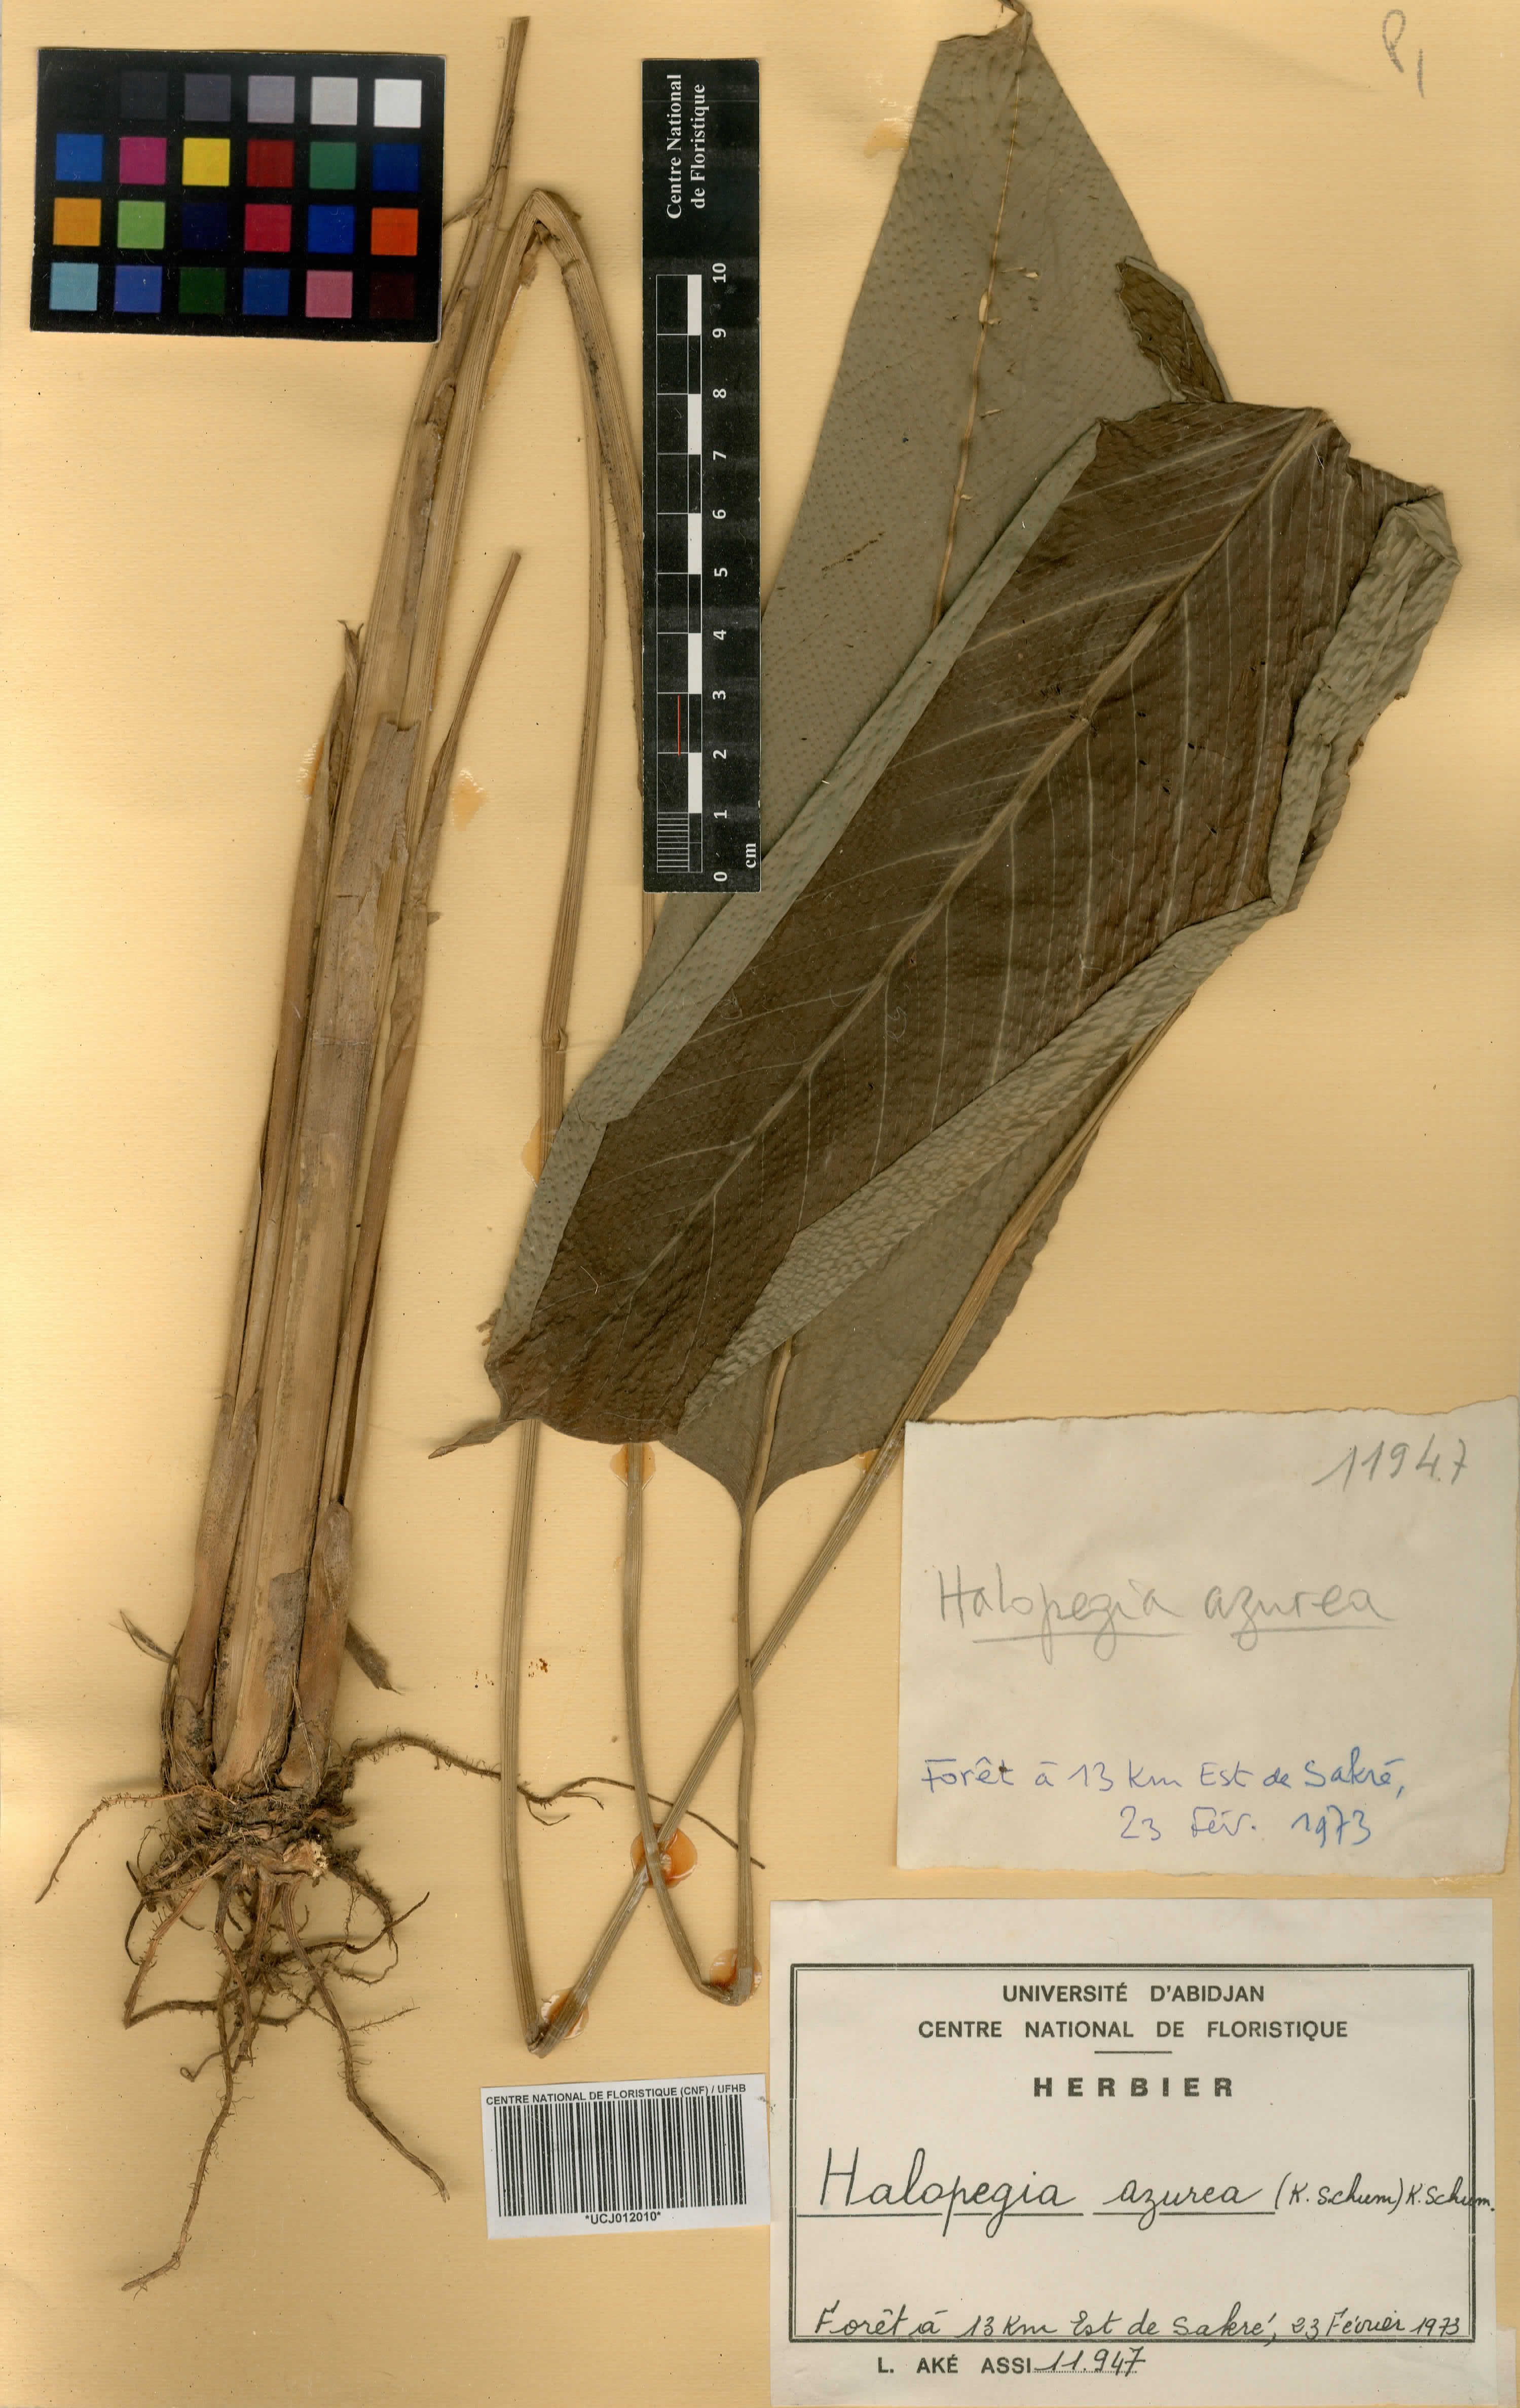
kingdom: Plantae
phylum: Tracheophyta
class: Liliopsida
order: Zingiberales
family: Marantaceae
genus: Halopegia
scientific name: Halopegia azurea
